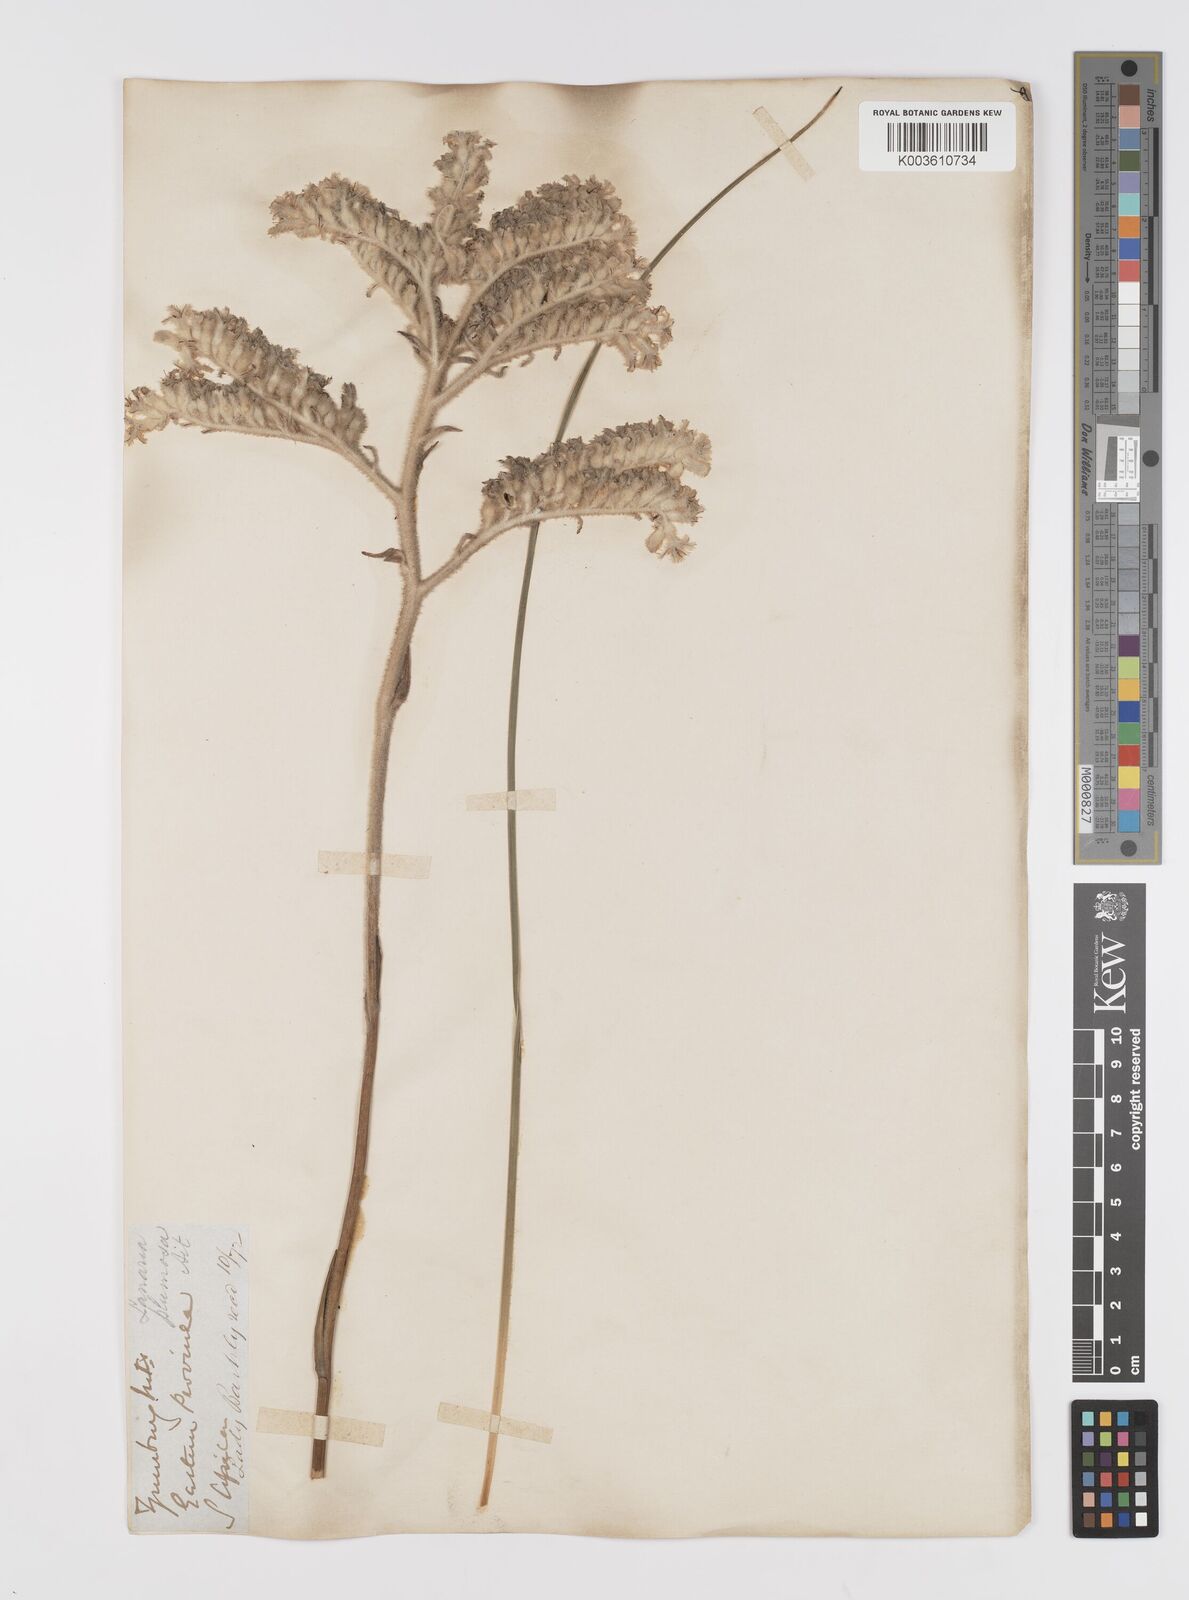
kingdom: Plantae
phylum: Tracheophyta
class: Liliopsida
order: Asparagales
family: Lanariaceae
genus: Lanaria
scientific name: Lanaria lanata
